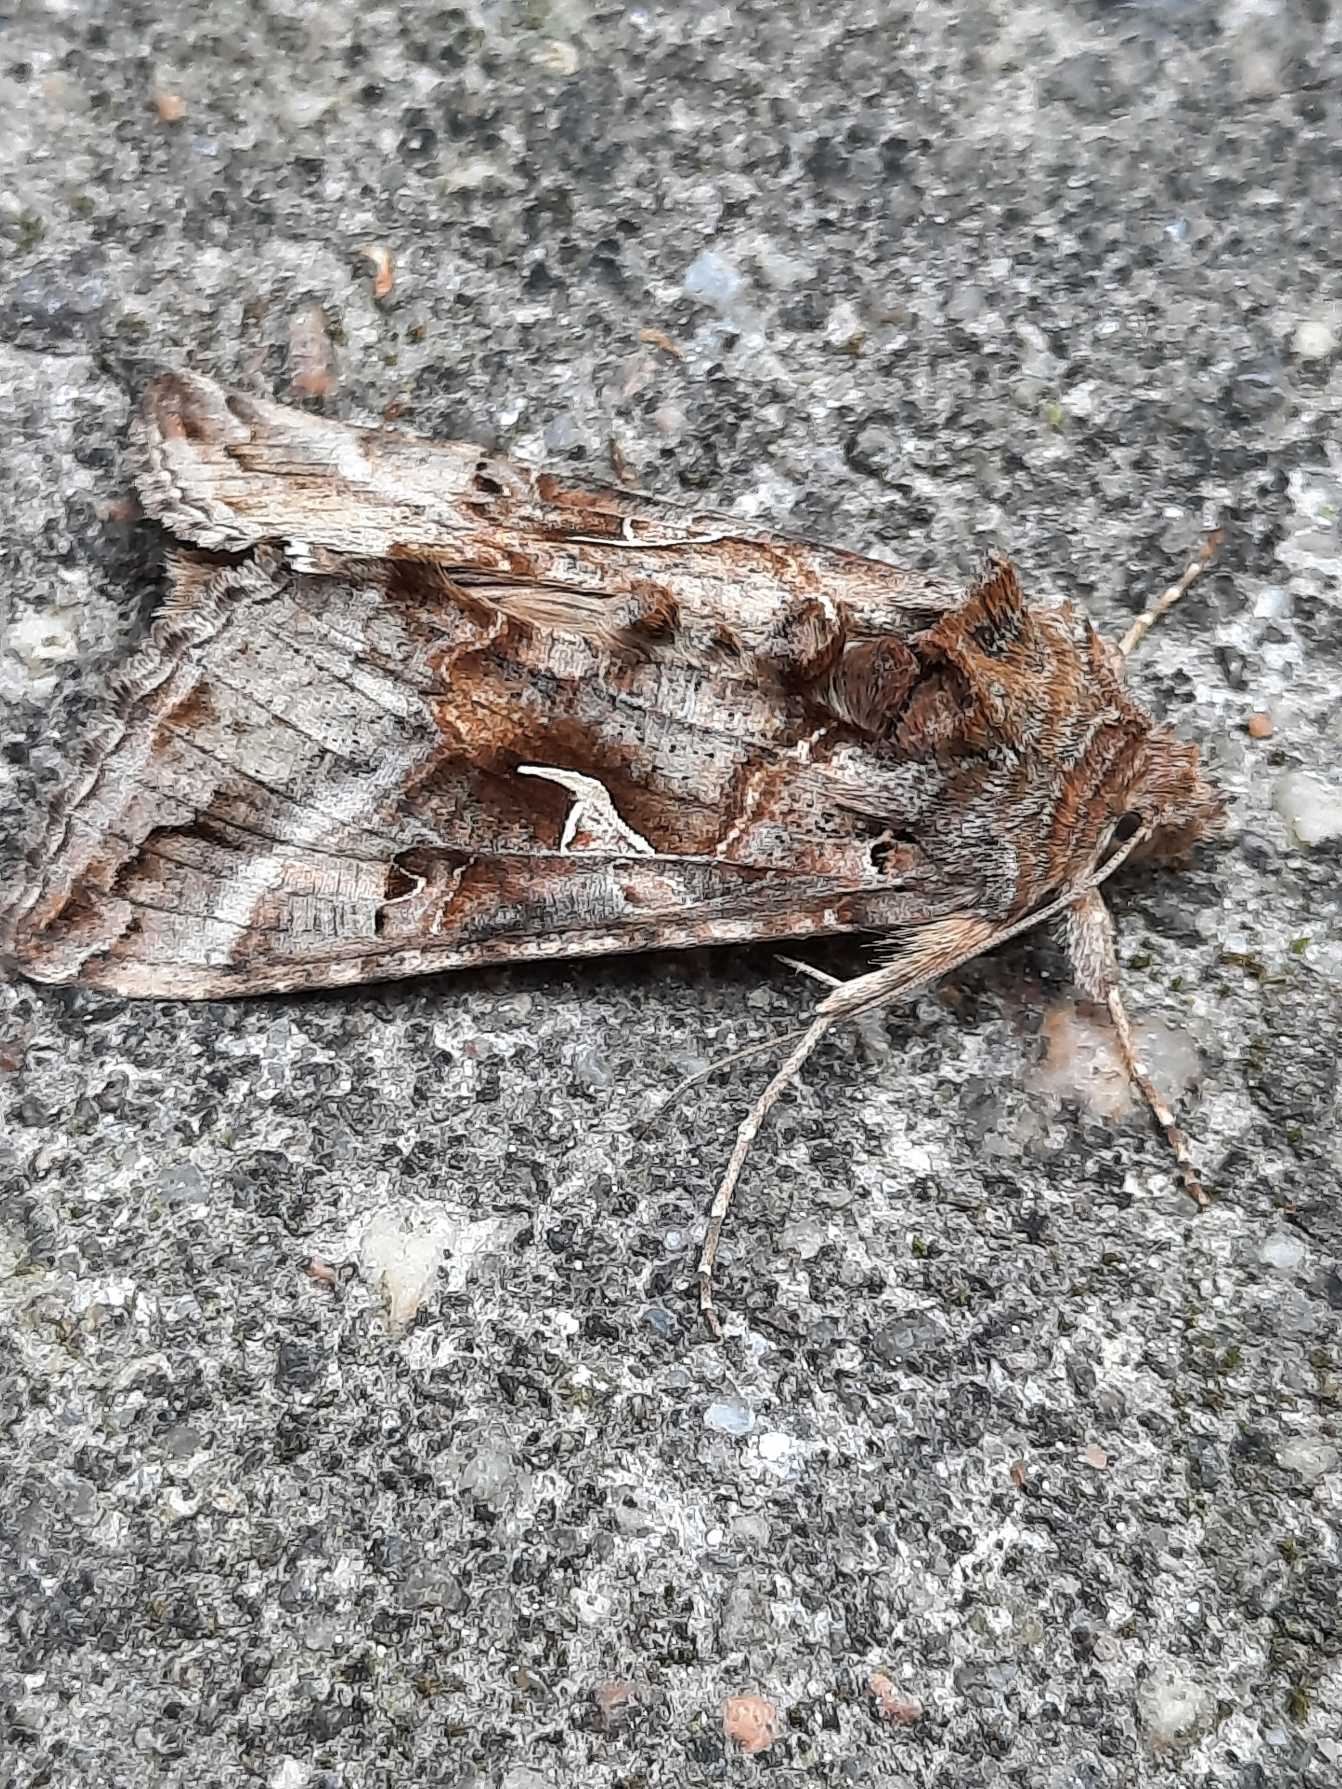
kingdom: Animalia
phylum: Arthropoda
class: Insecta
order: Lepidoptera
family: Noctuidae
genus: Autographa
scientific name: Autographa gamma
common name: Gammaugle
